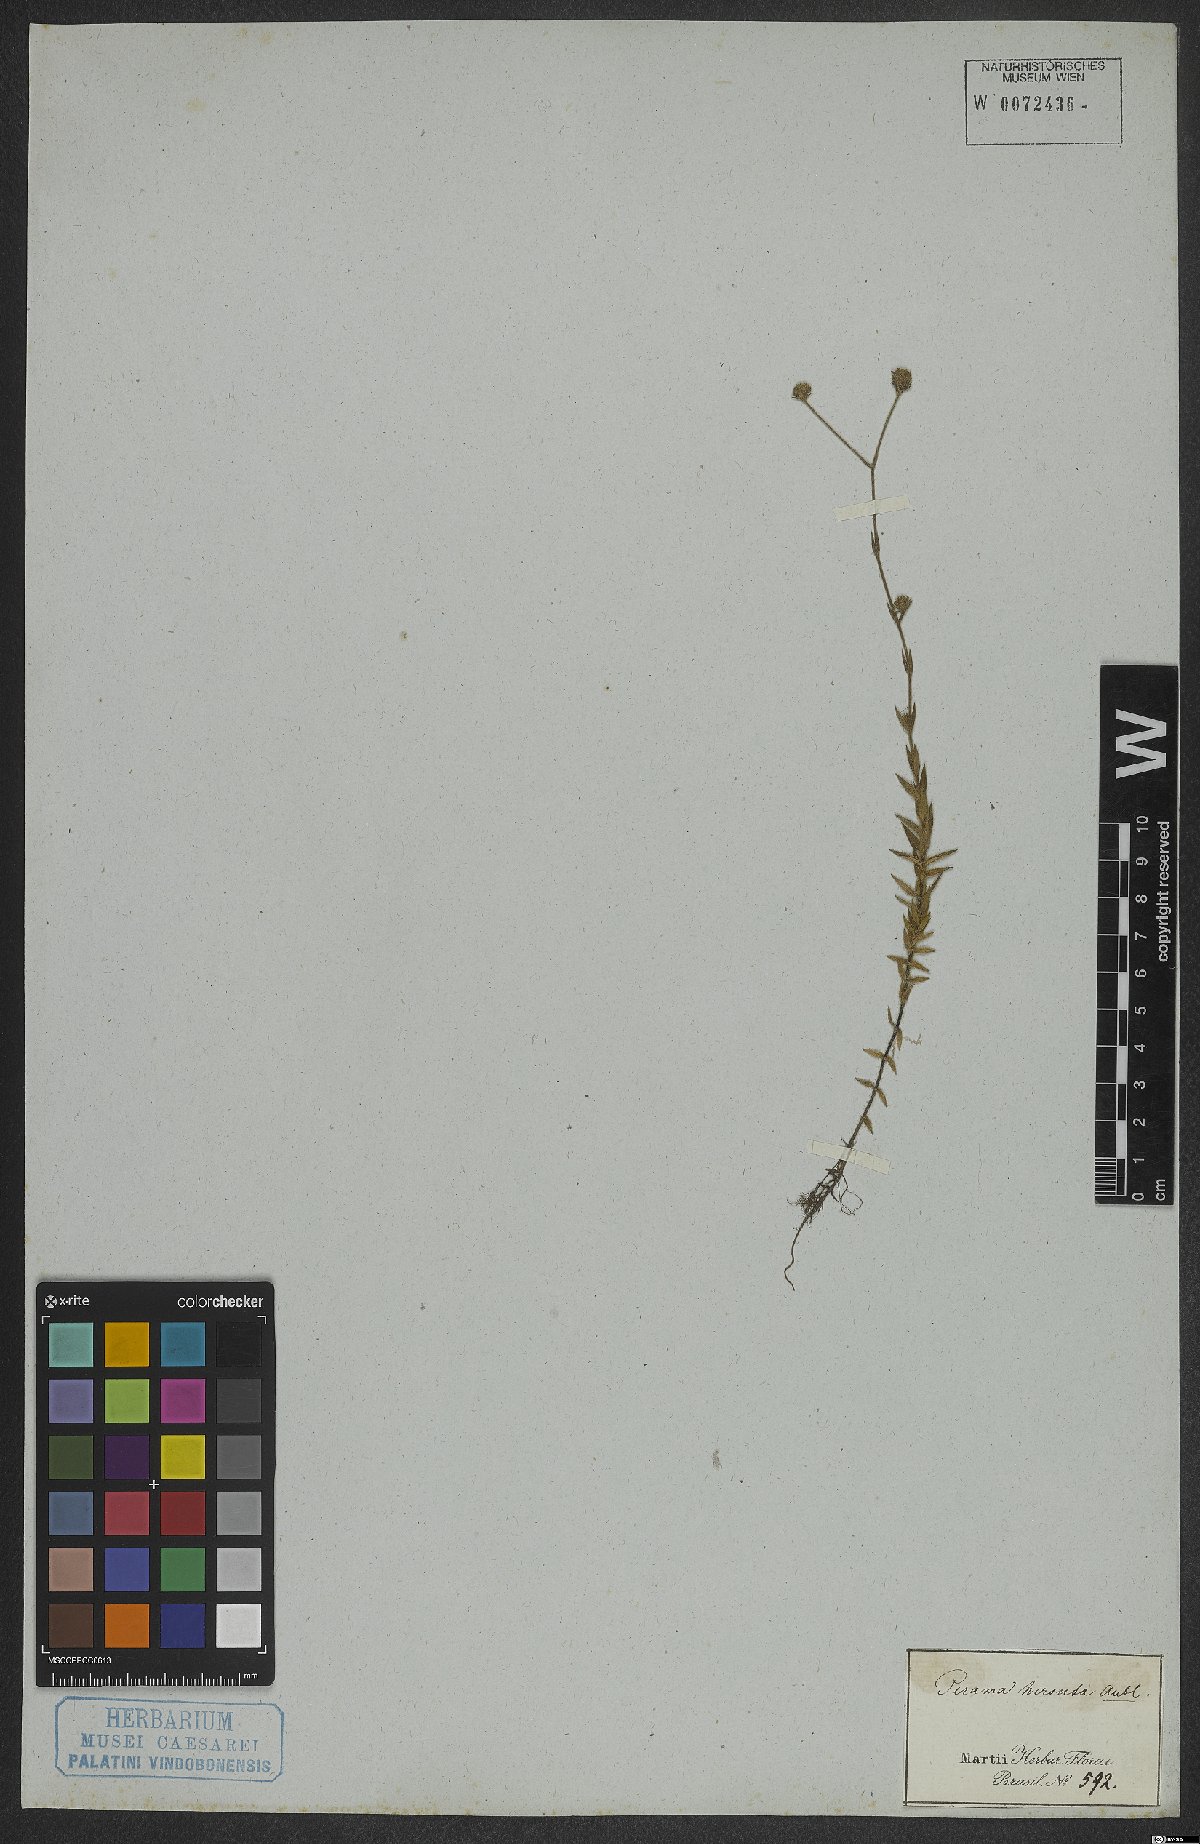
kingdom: Plantae
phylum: Tracheophyta
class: Magnoliopsida
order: Gentianales
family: Rubiaceae
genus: Perama
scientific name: Perama hirsuta
